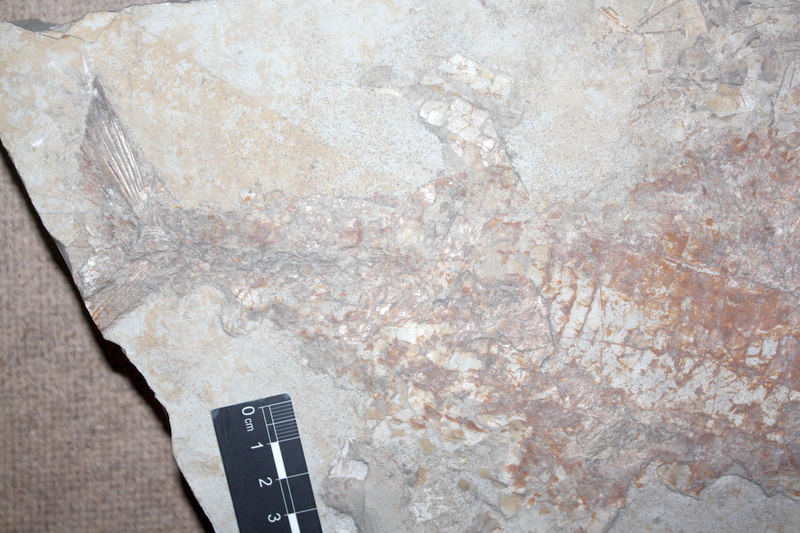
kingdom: Animalia
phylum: Chordata
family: Ankylophoridae
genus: Siemensichthys
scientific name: Siemensichthys macrocephalus
